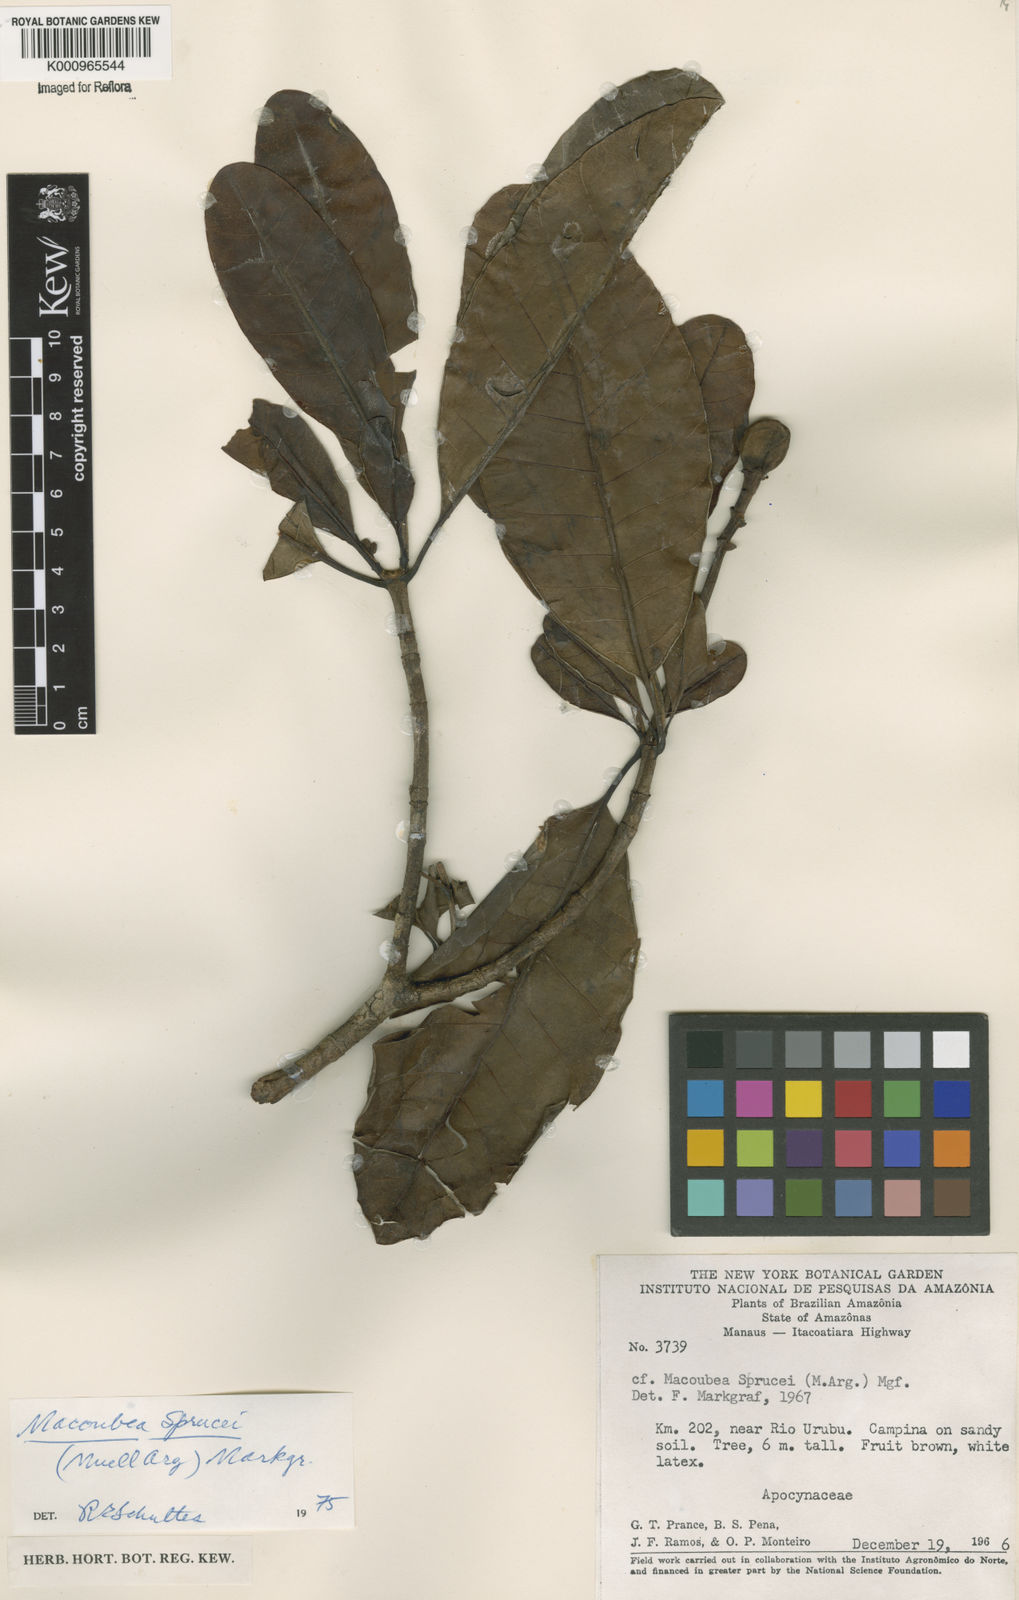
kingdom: Plantae
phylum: Tracheophyta
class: Magnoliopsida
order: Gentianales
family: Apocynaceae
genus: Macoubea
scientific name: Macoubea
